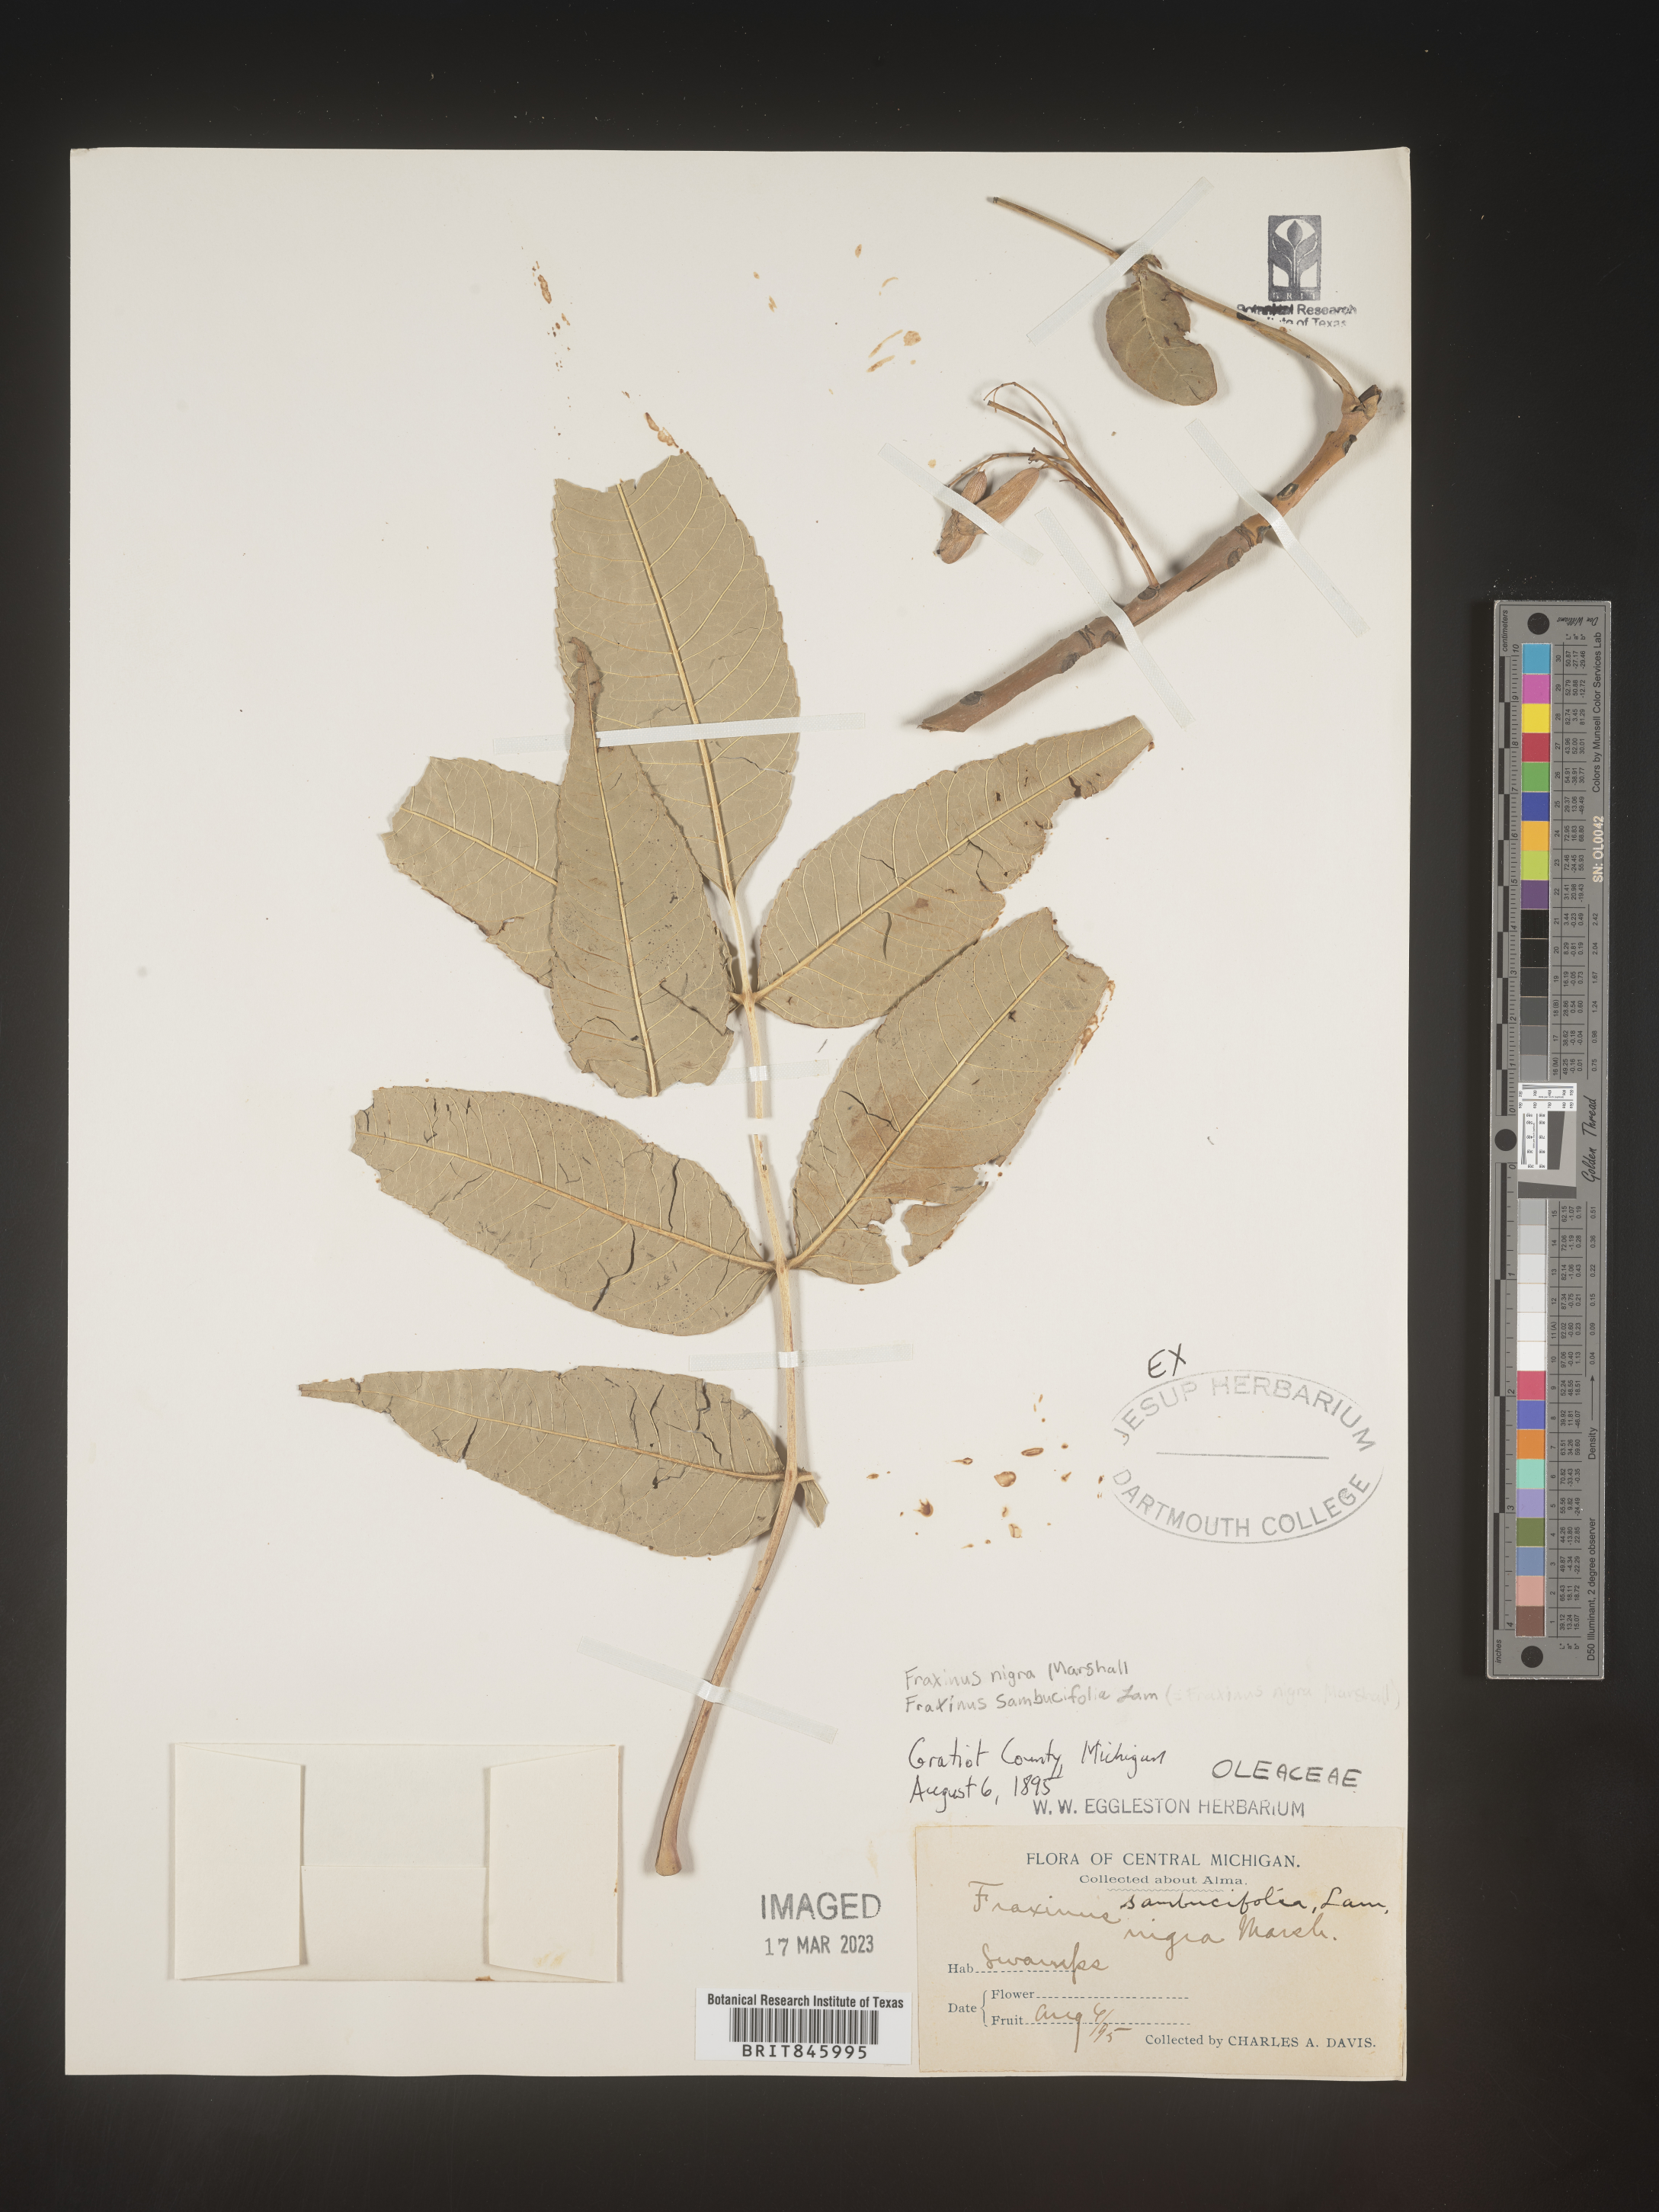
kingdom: Plantae
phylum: Tracheophyta
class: Magnoliopsida
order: Lamiales
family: Oleaceae
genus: Fraxinus
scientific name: Fraxinus nigra
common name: Black ash
